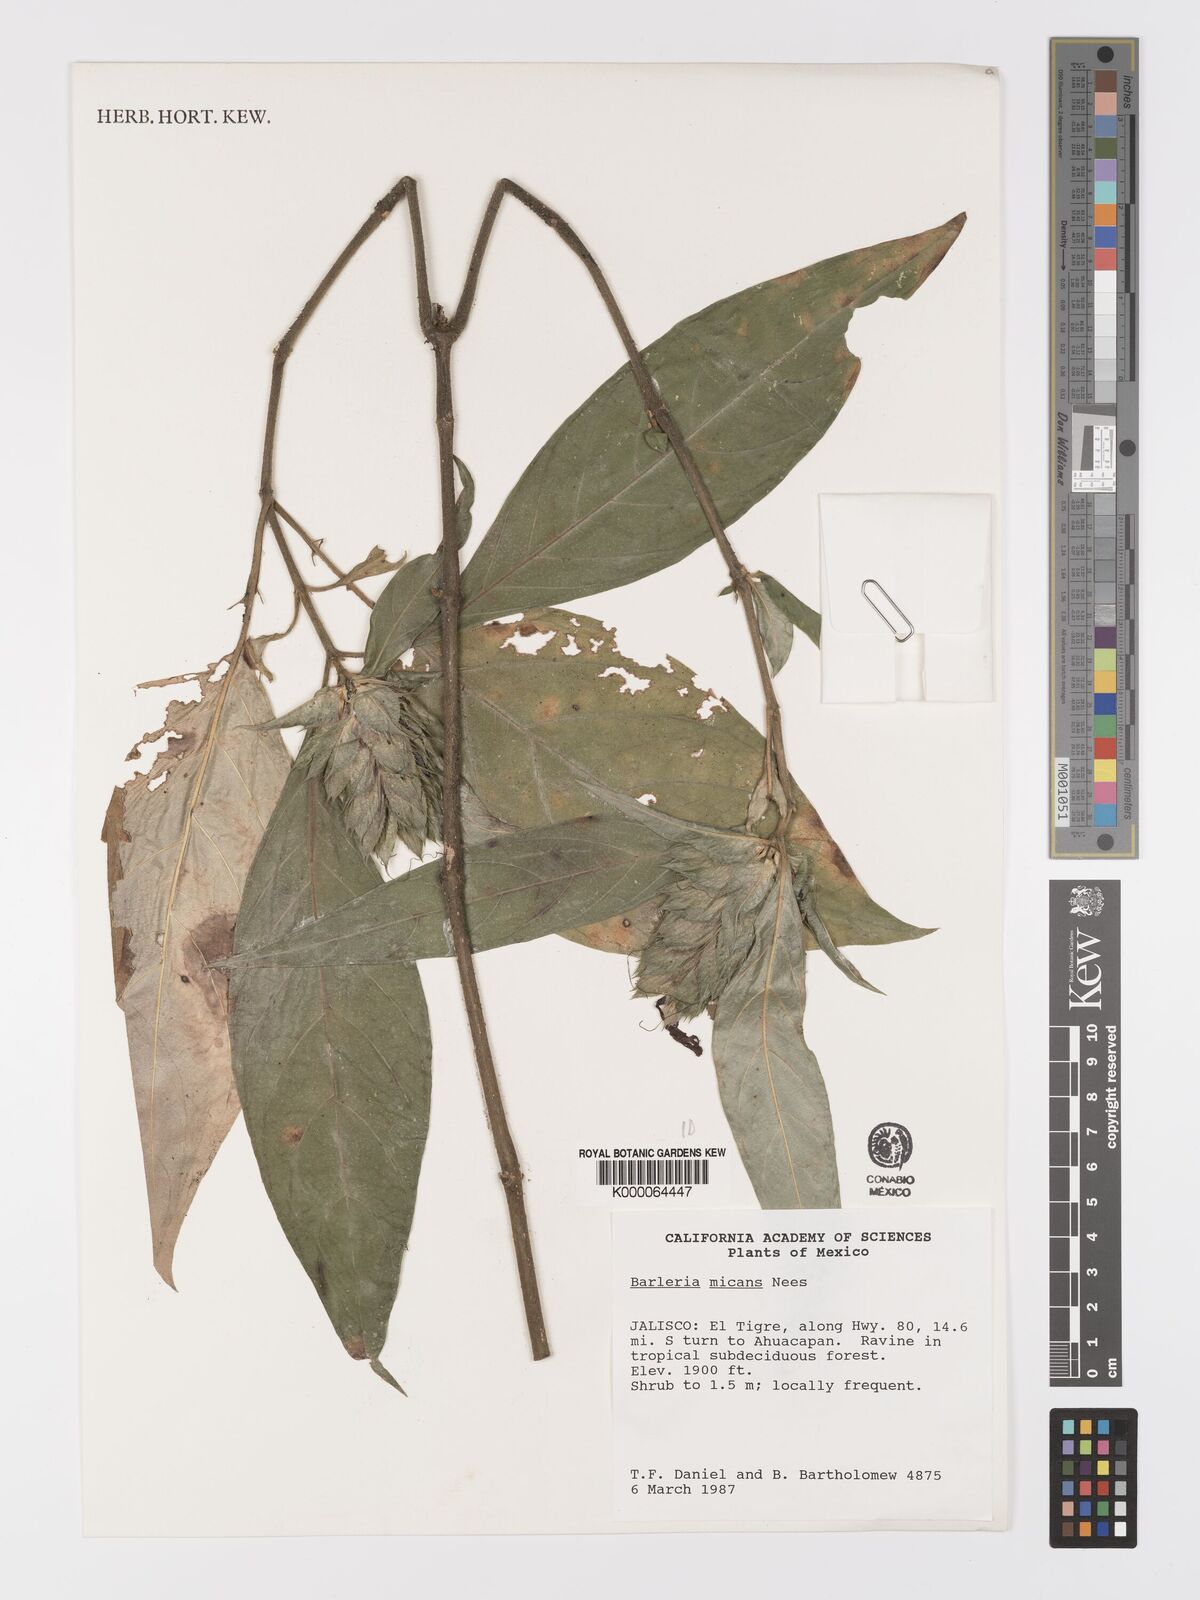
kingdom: Plantae
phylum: Tracheophyta
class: Magnoliopsida
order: Lamiales
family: Acanthaceae
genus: Barleria
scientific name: Barleria oenotheroides
